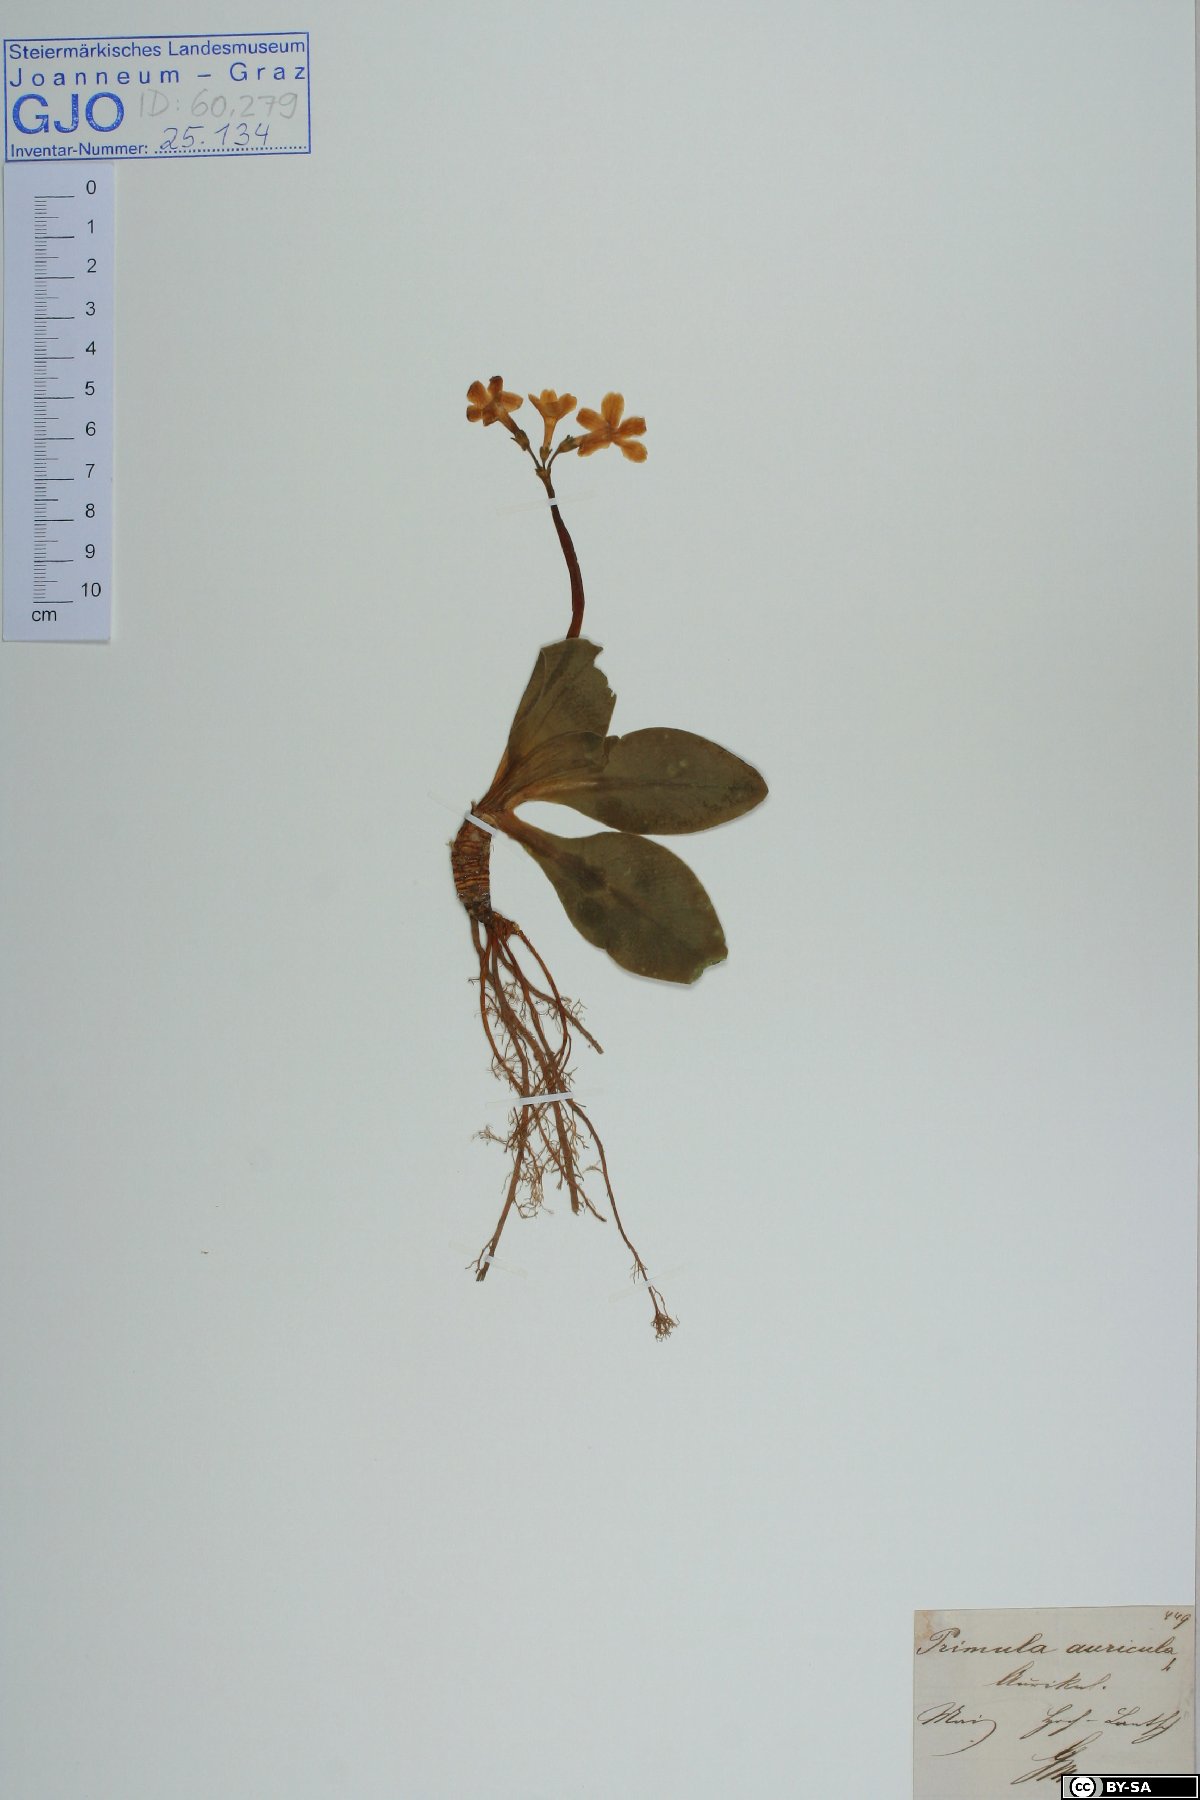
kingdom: Plantae
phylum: Tracheophyta
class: Magnoliopsida
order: Ericales
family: Primulaceae
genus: Primula
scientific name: Primula auricula
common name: Auricula
